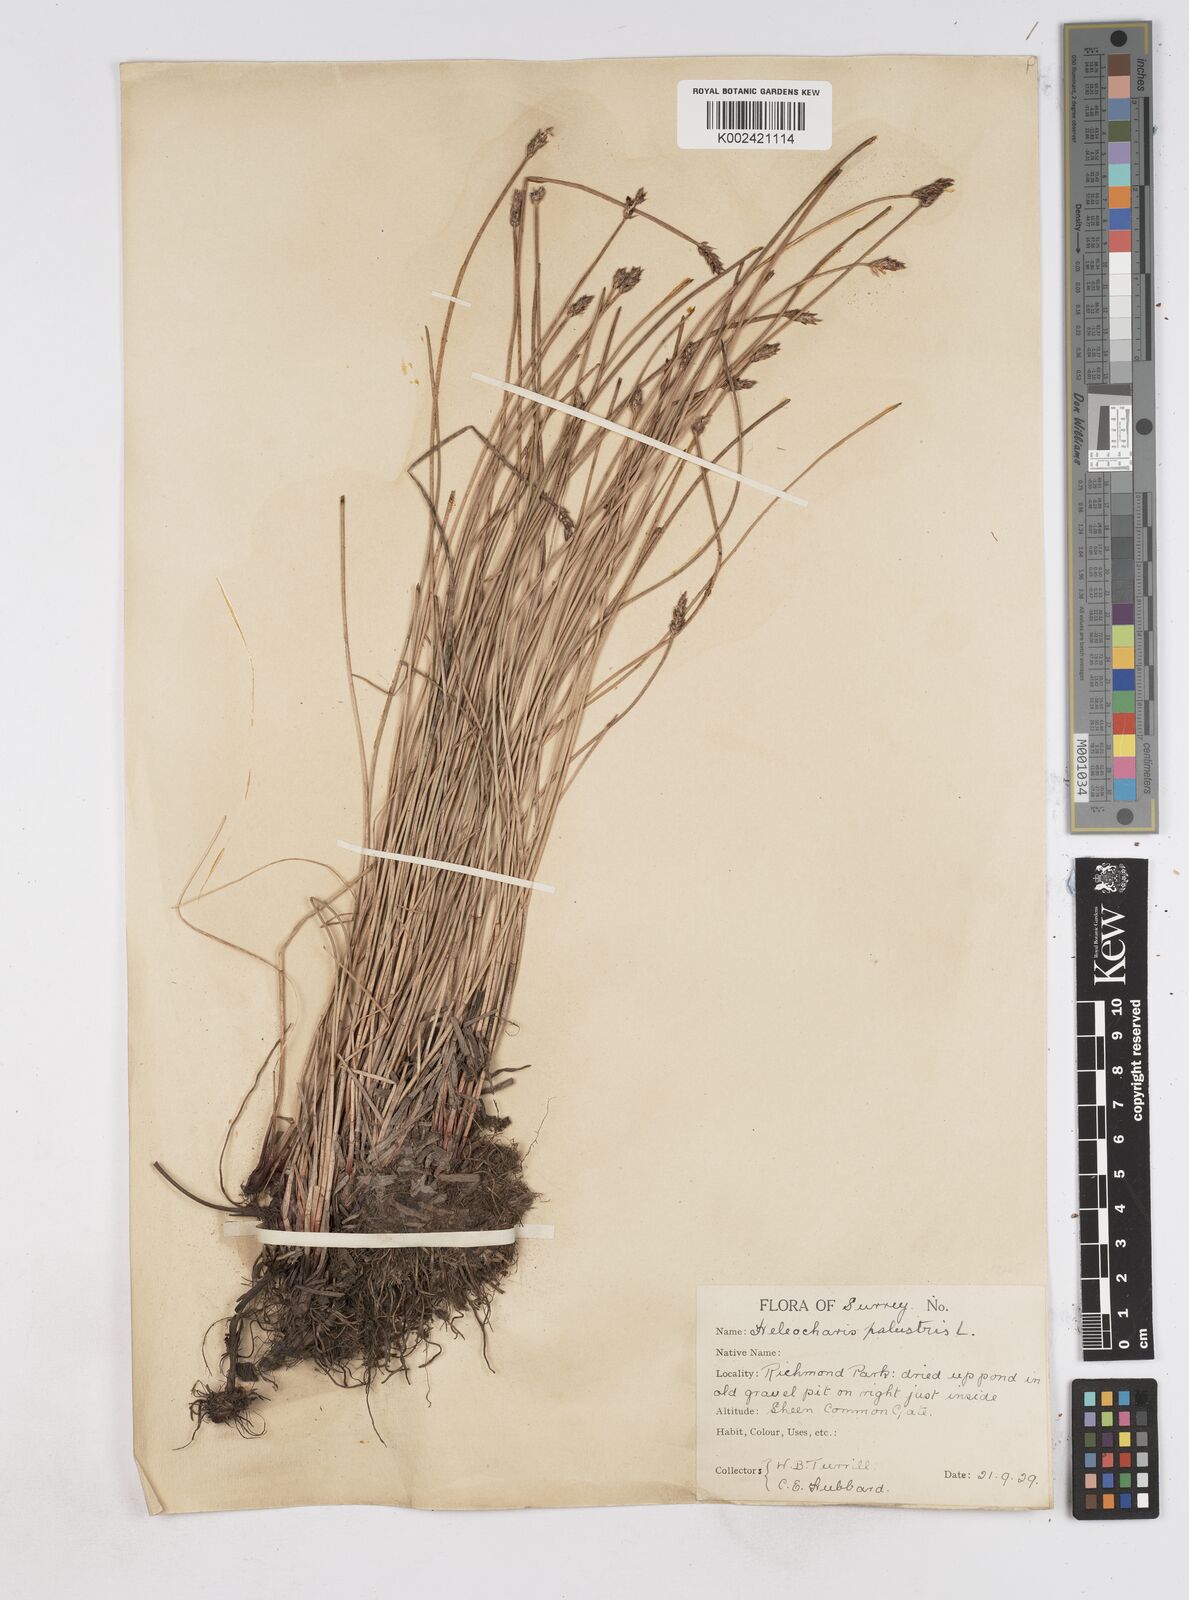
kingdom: Plantae
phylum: Tracheophyta
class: Liliopsida
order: Poales
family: Cyperaceae
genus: Eleocharis
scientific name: Eleocharis palustris
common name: Common spike-rush
